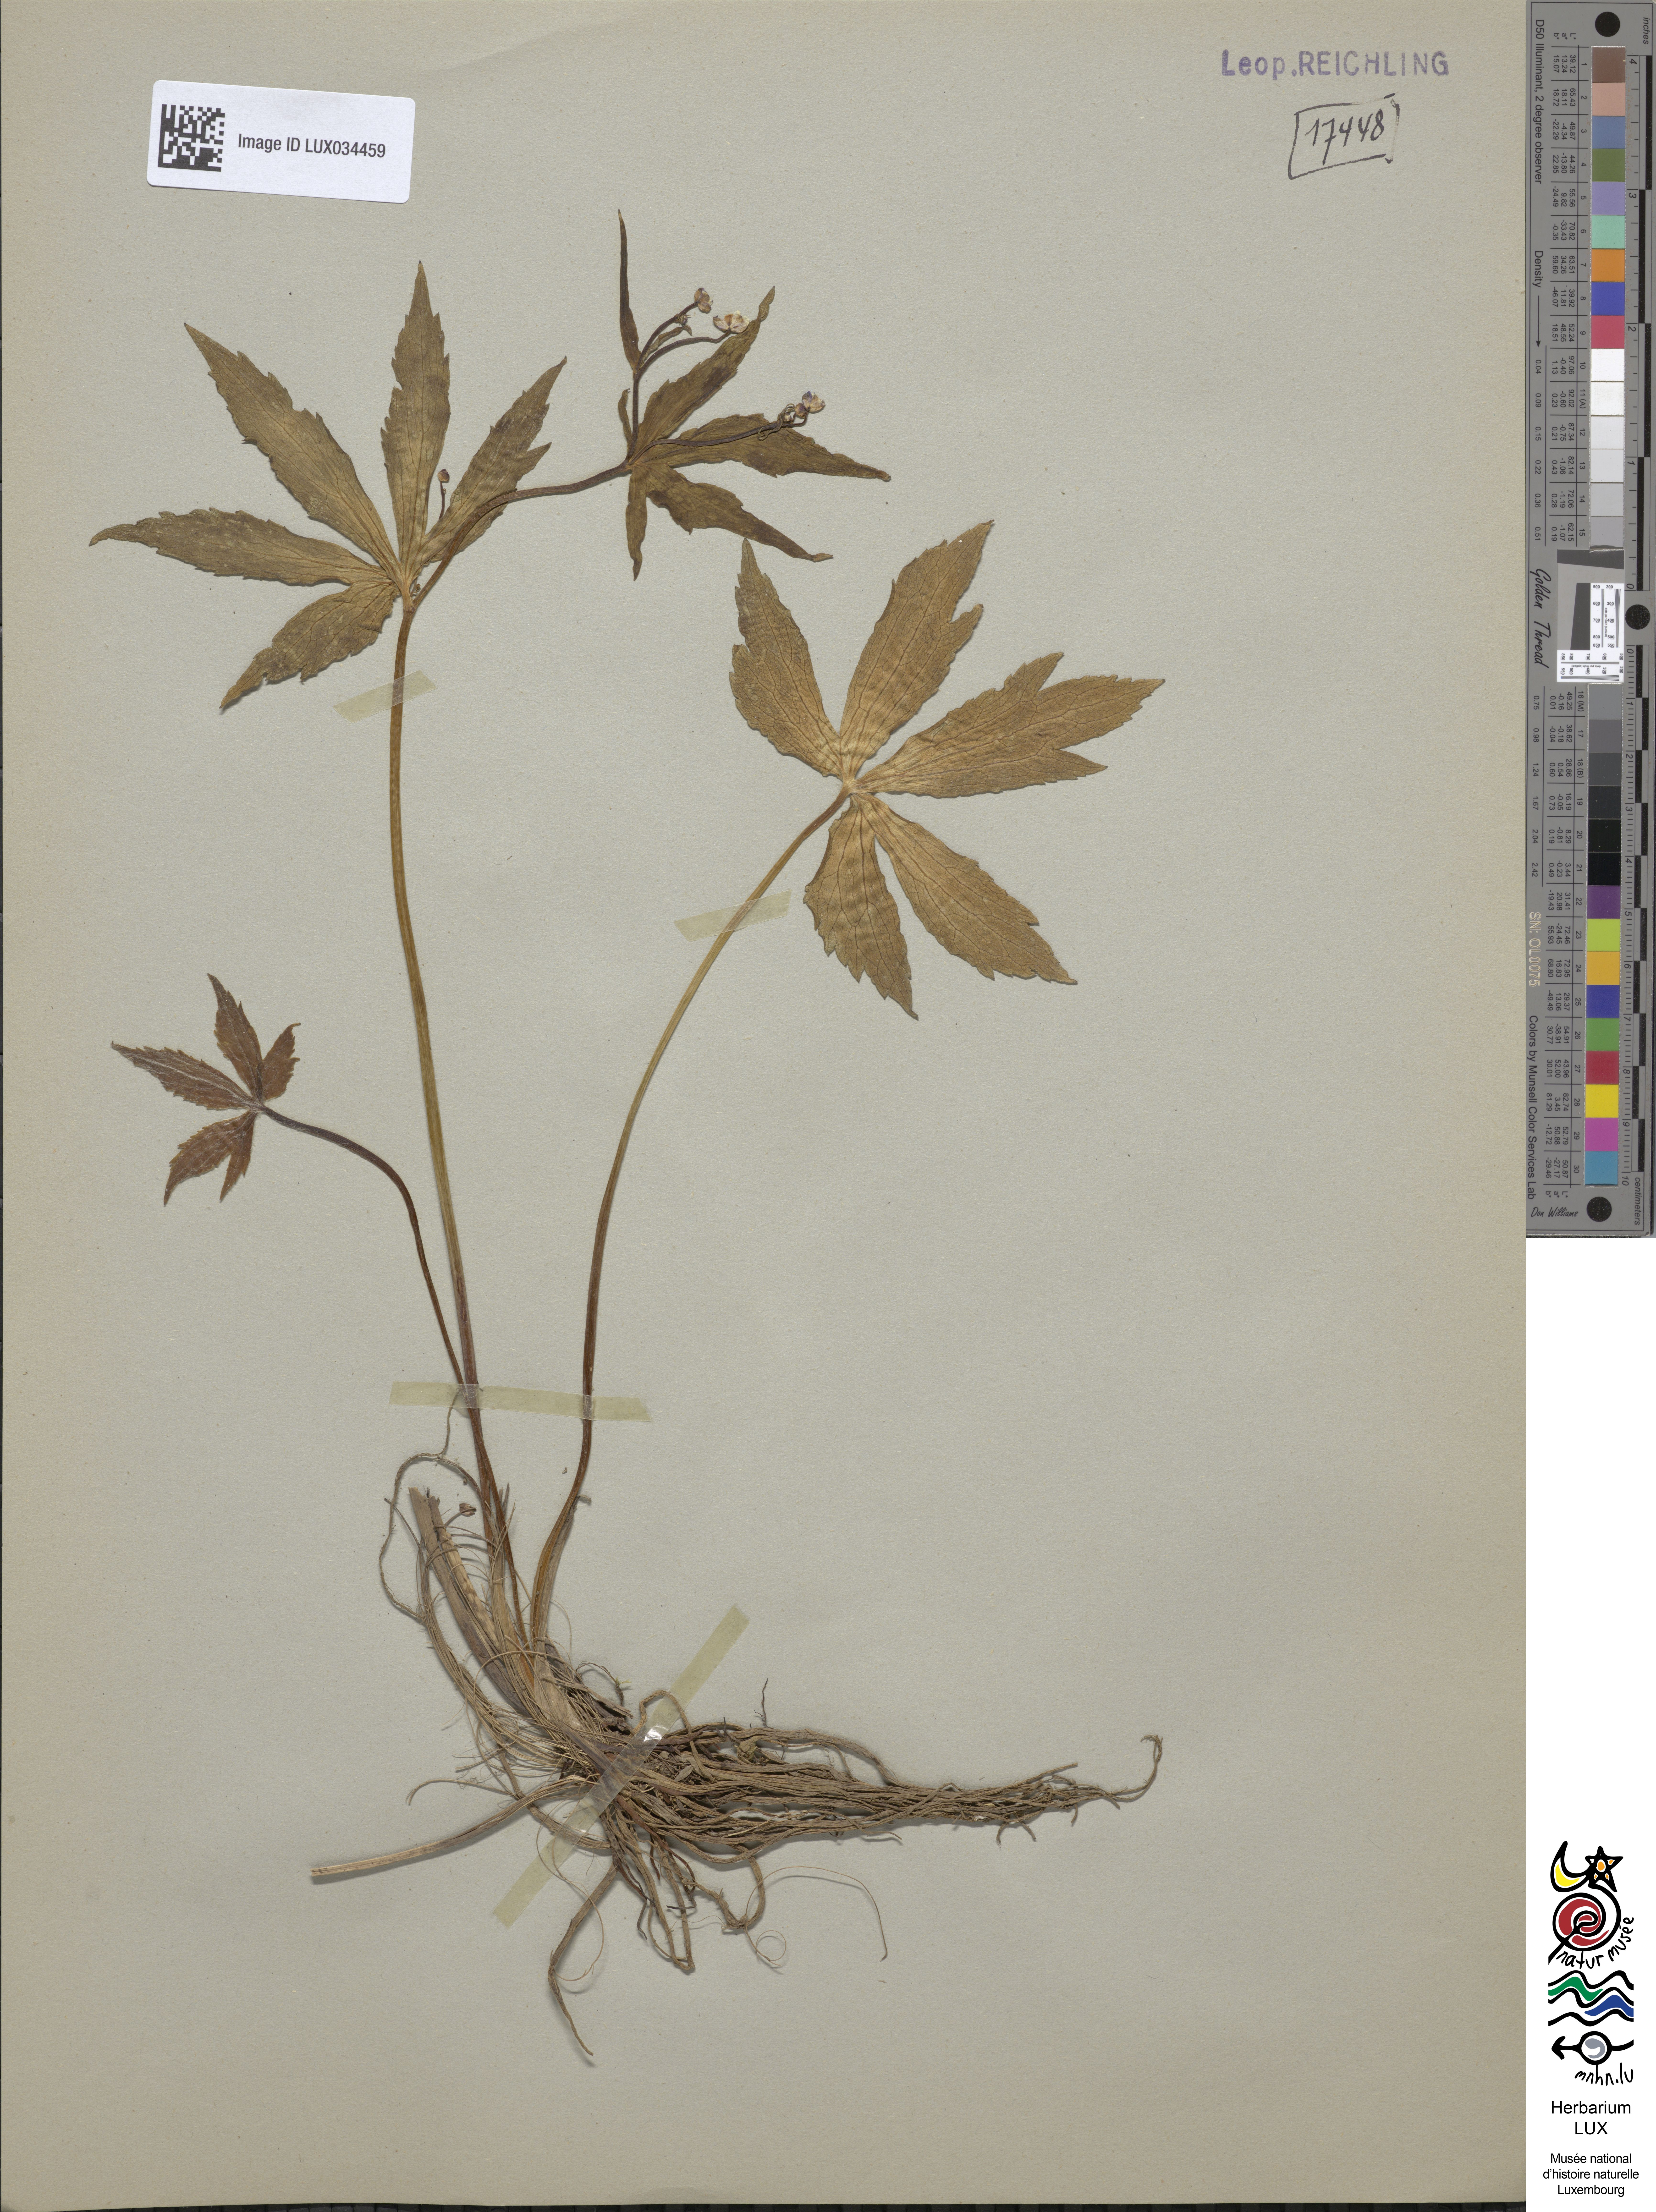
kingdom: Plantae
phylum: Tracheophyta
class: Magnoliopsida
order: Ranunculales
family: Ranunculaceae
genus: Ranunculus
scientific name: Ranunculus platanifolius
